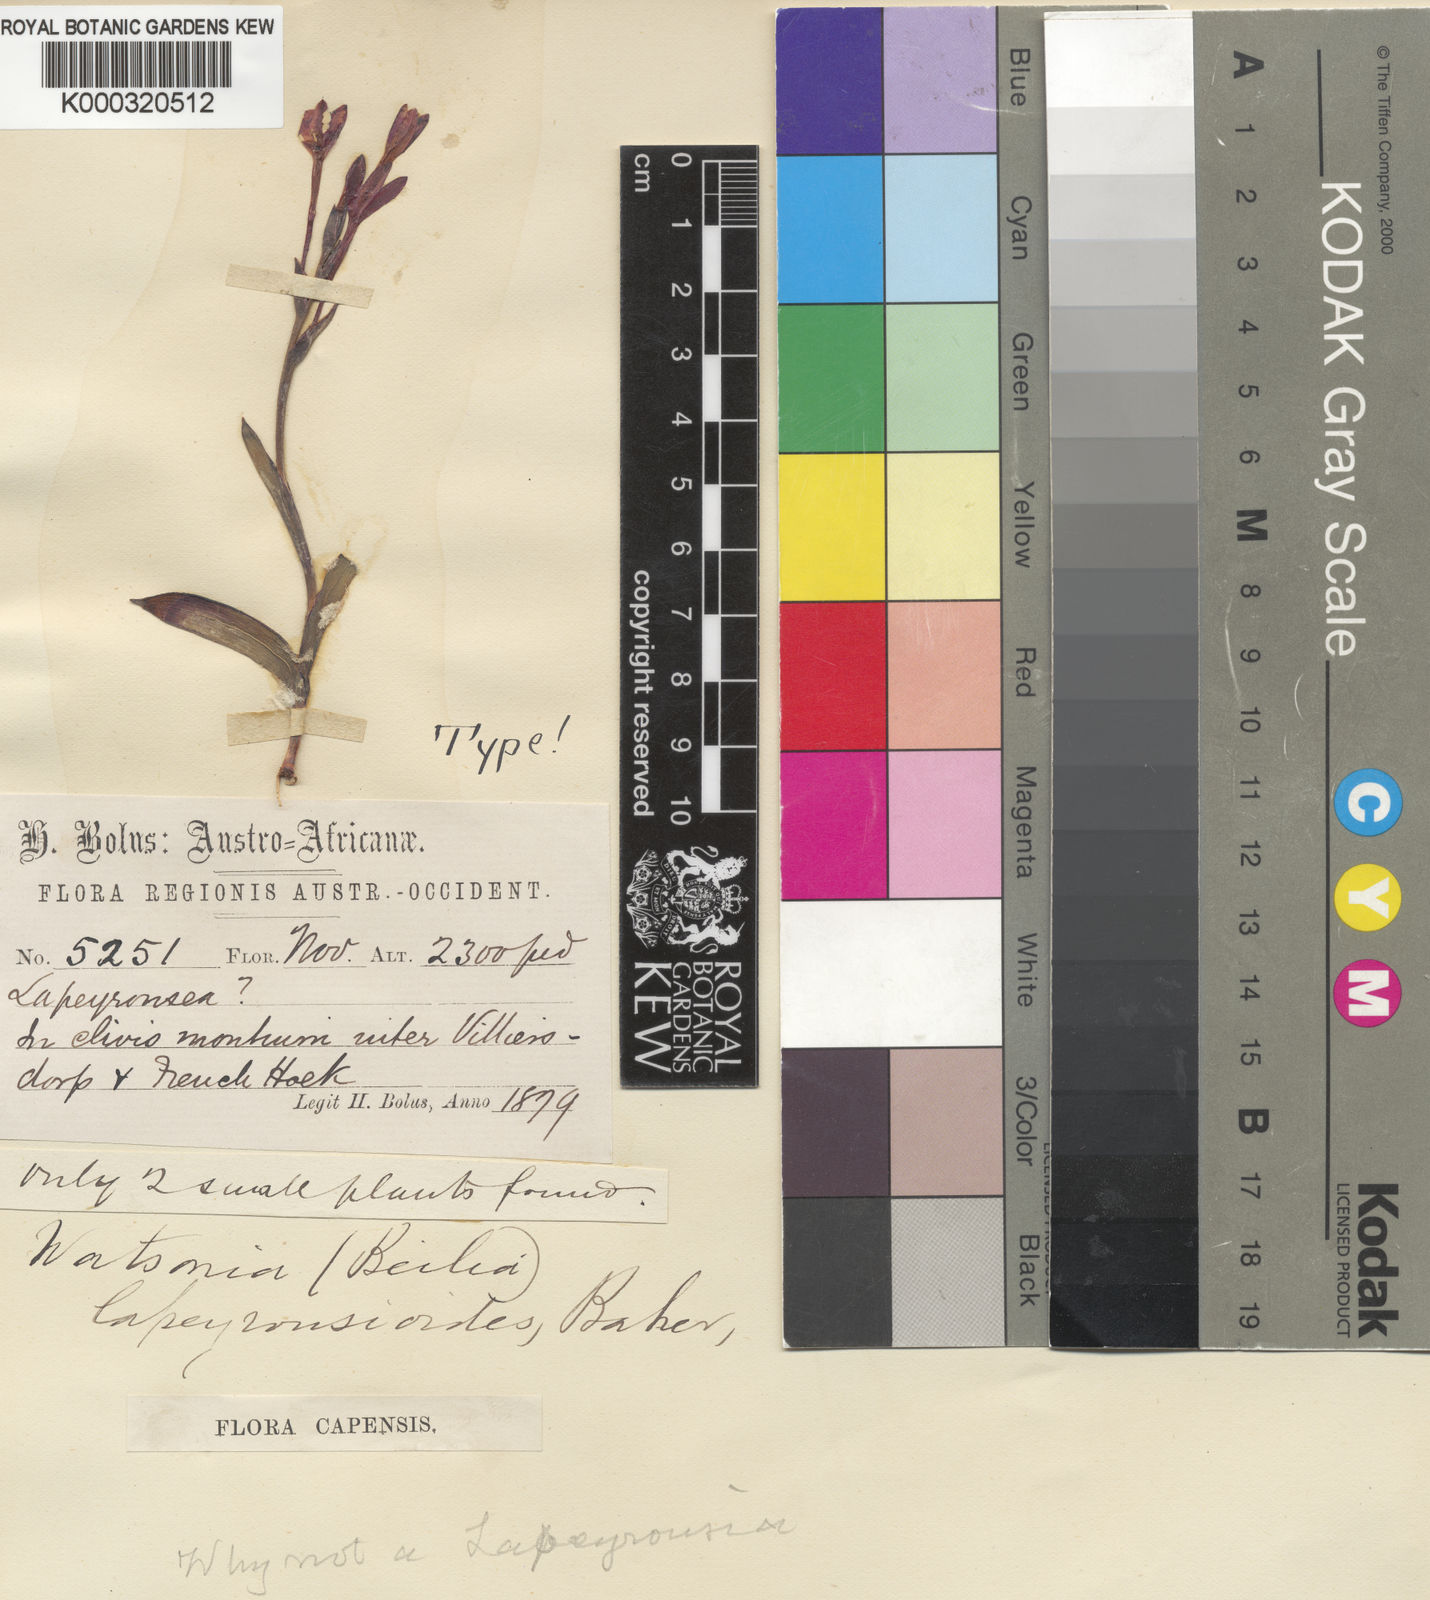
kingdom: Plantae
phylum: Tracheophyta
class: Liliopsida
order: Asparagales
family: Iridaceae
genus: Thereianthus
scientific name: Thereianthus
